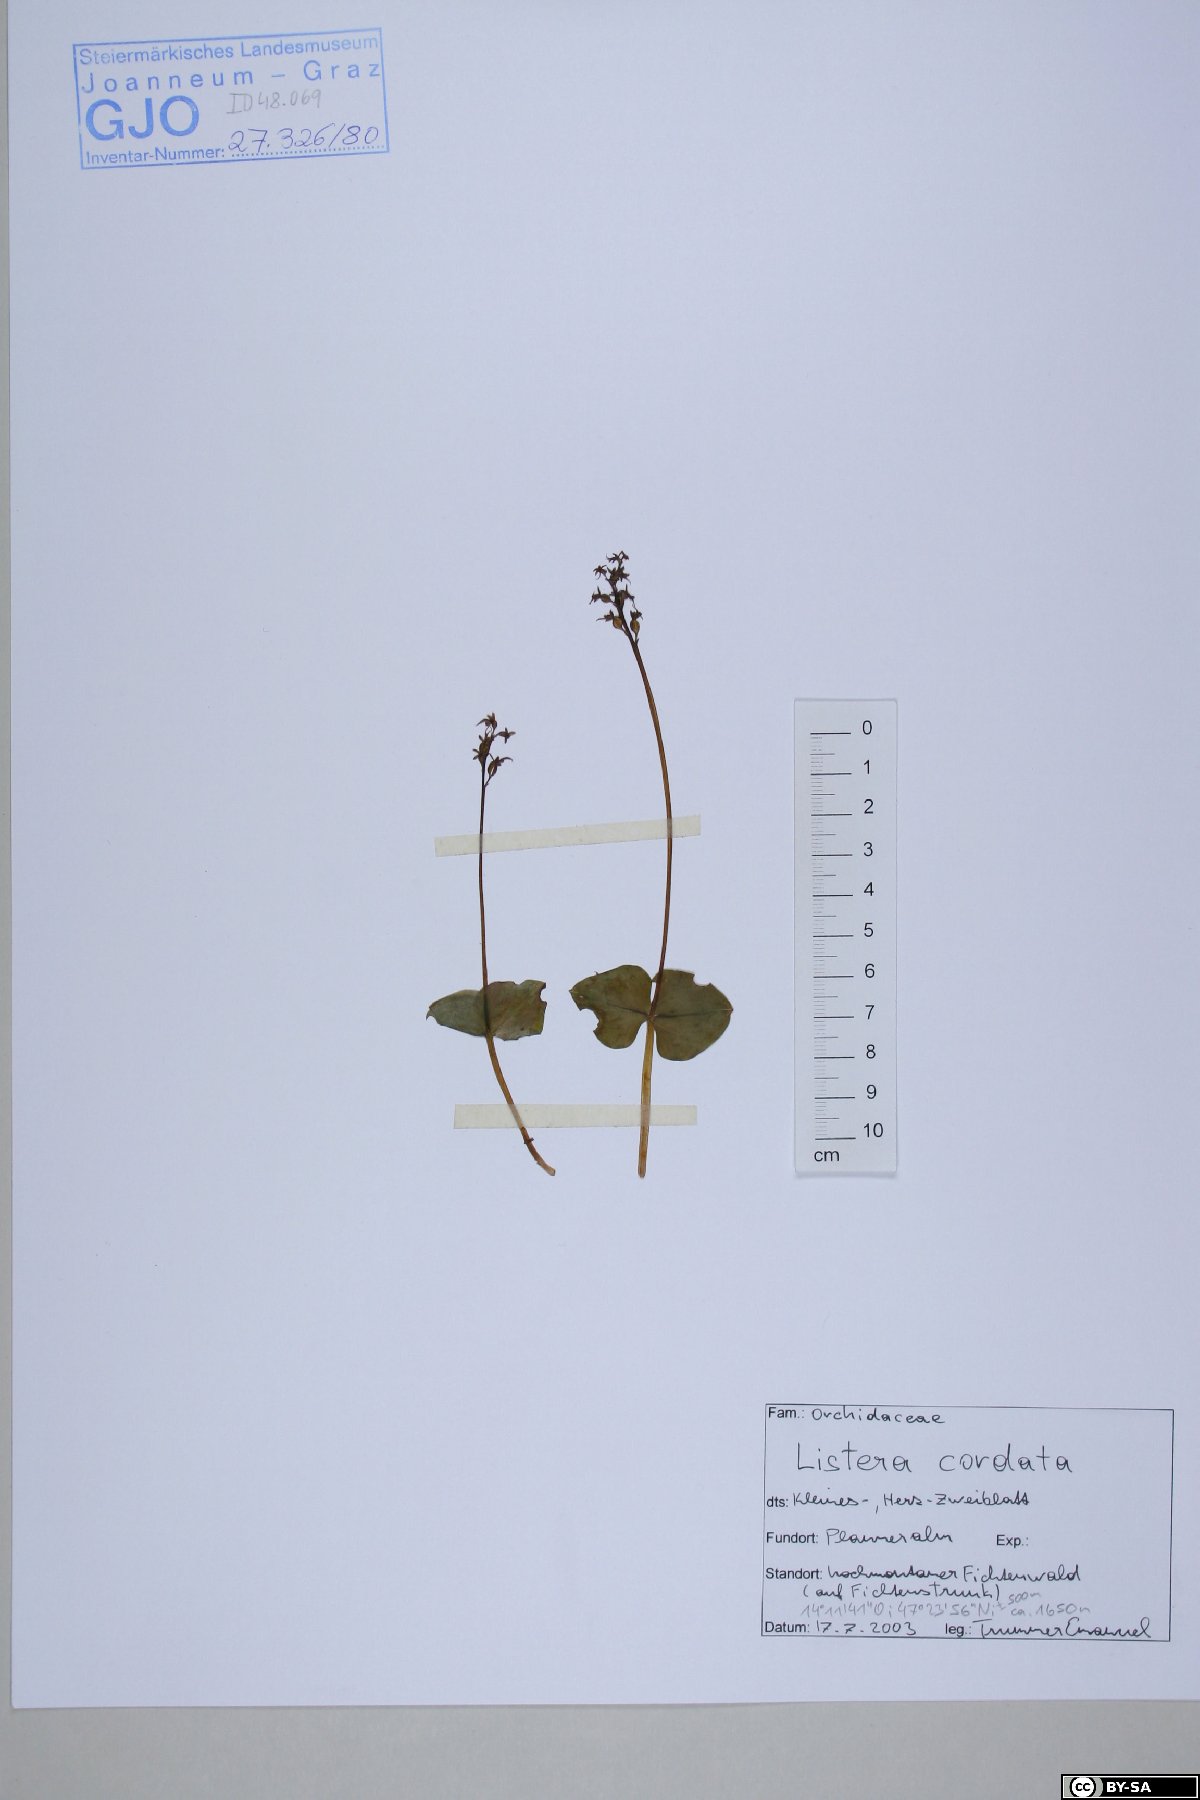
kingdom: Plantae
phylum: Tracheophyta
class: Liliopsida
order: Asparagales
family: Orchidaceae
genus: Neottia
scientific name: Neottia cordata
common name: Lesser twayblade
